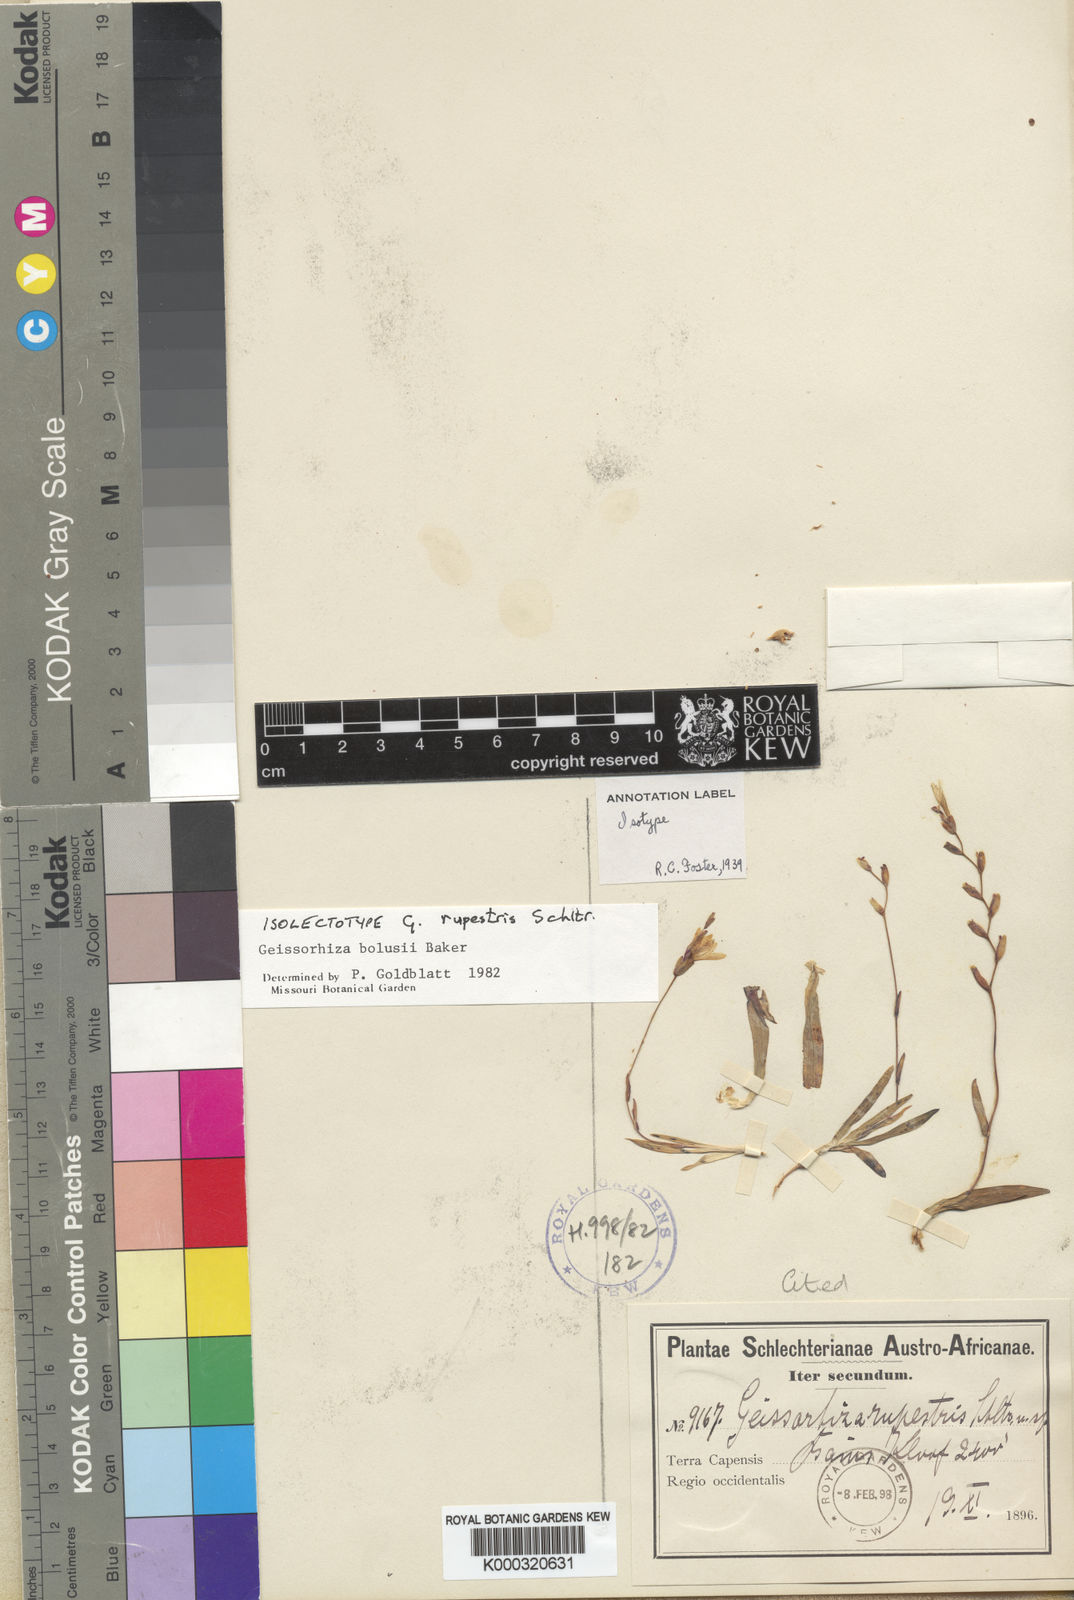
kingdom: Plantae
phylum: Tracheophyta
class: Liliopsida
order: Asparagales
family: Iridaceae
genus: Geissorhiza
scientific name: Geissorhiza bolusii
